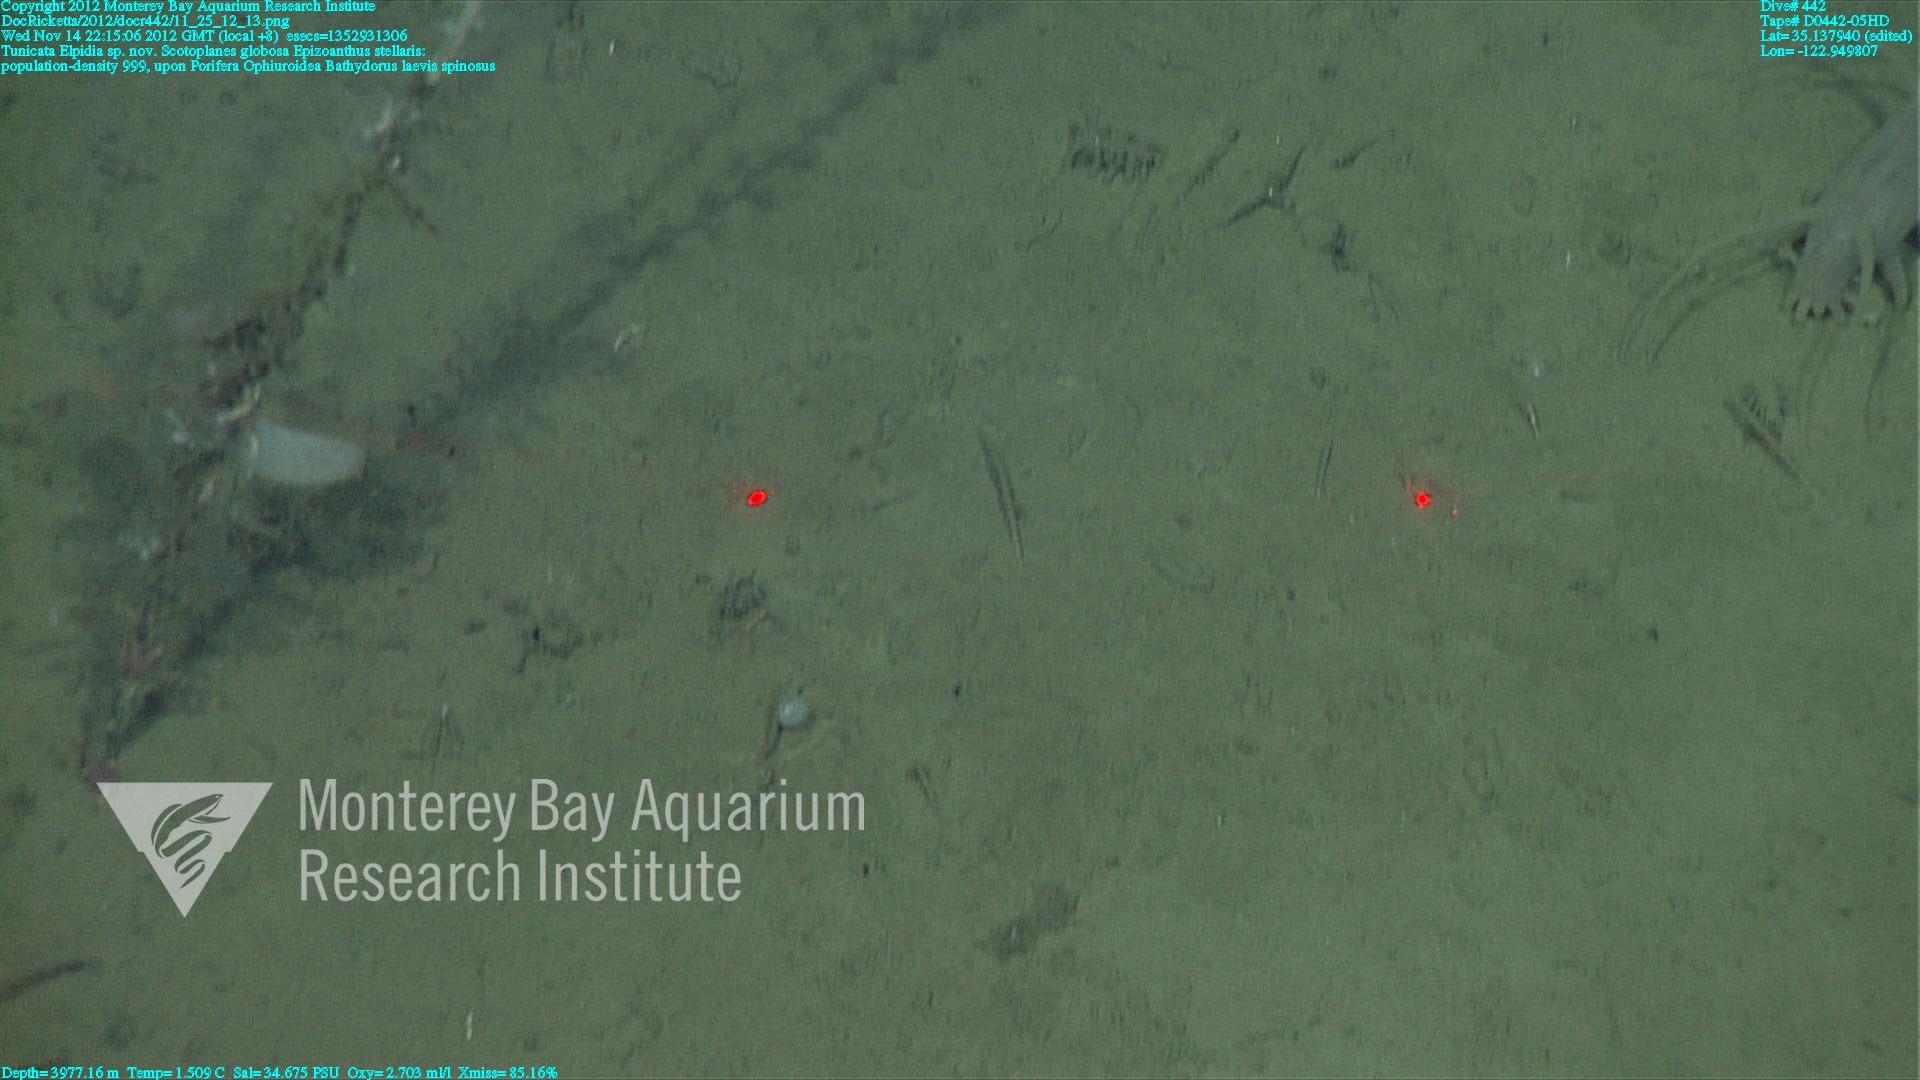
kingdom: Animalia
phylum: Porifera
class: Hexactinellida
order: Lyssacinosida
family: Rossellidae
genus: Bathydorus
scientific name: Bathydorus spinosus
